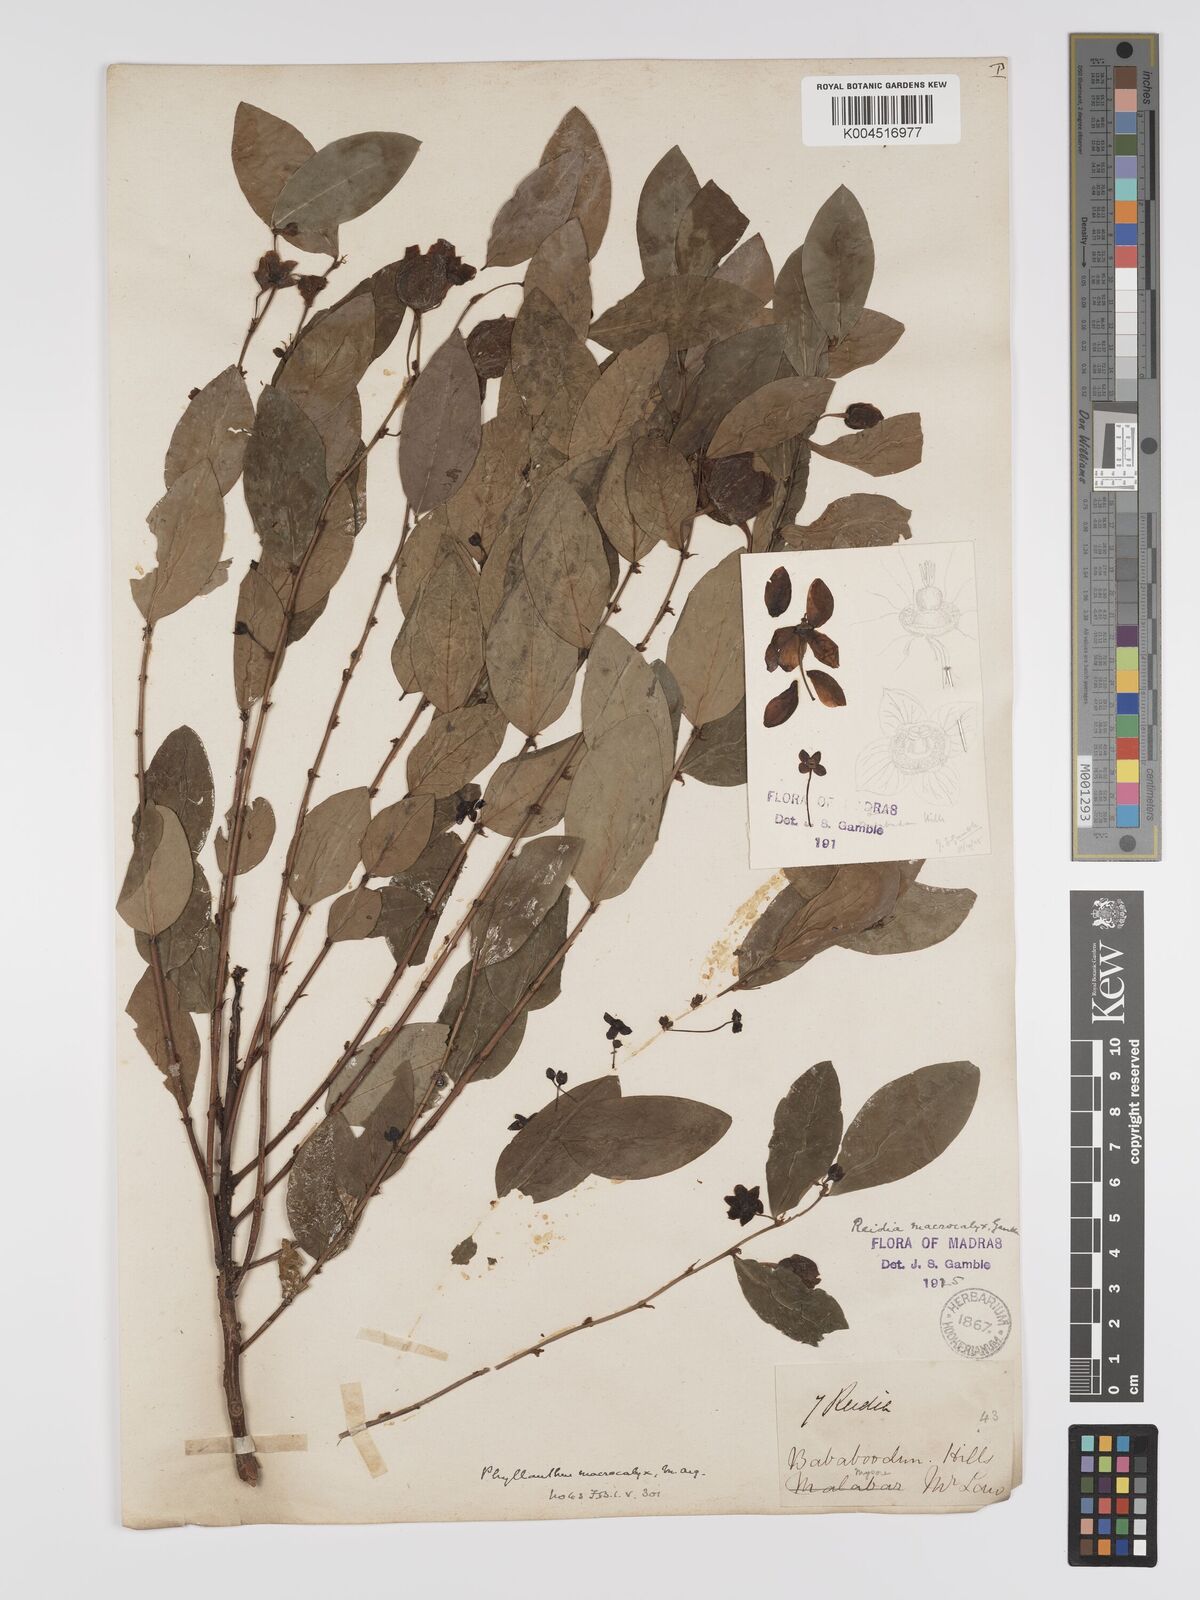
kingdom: Plantae
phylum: Tracheophyta
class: Magnoliopsida
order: Malpighiales
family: Phyllanthaceae
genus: Phyllanthus
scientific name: Phyllanthus macrocalyx
